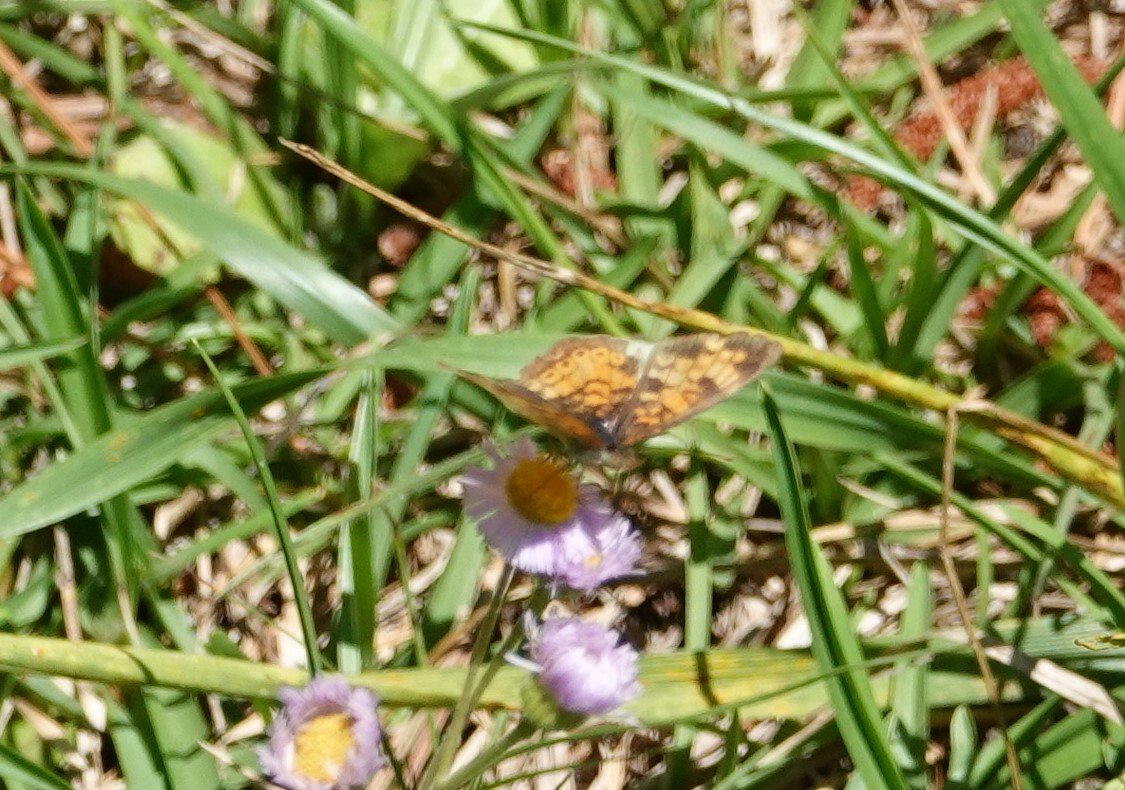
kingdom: Animalia
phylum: Arthropoda
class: Insecta
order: Lepidoptera
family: Nymphalidae
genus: Phyciodes
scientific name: Phyciodes tharos
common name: Pearl Crescent
